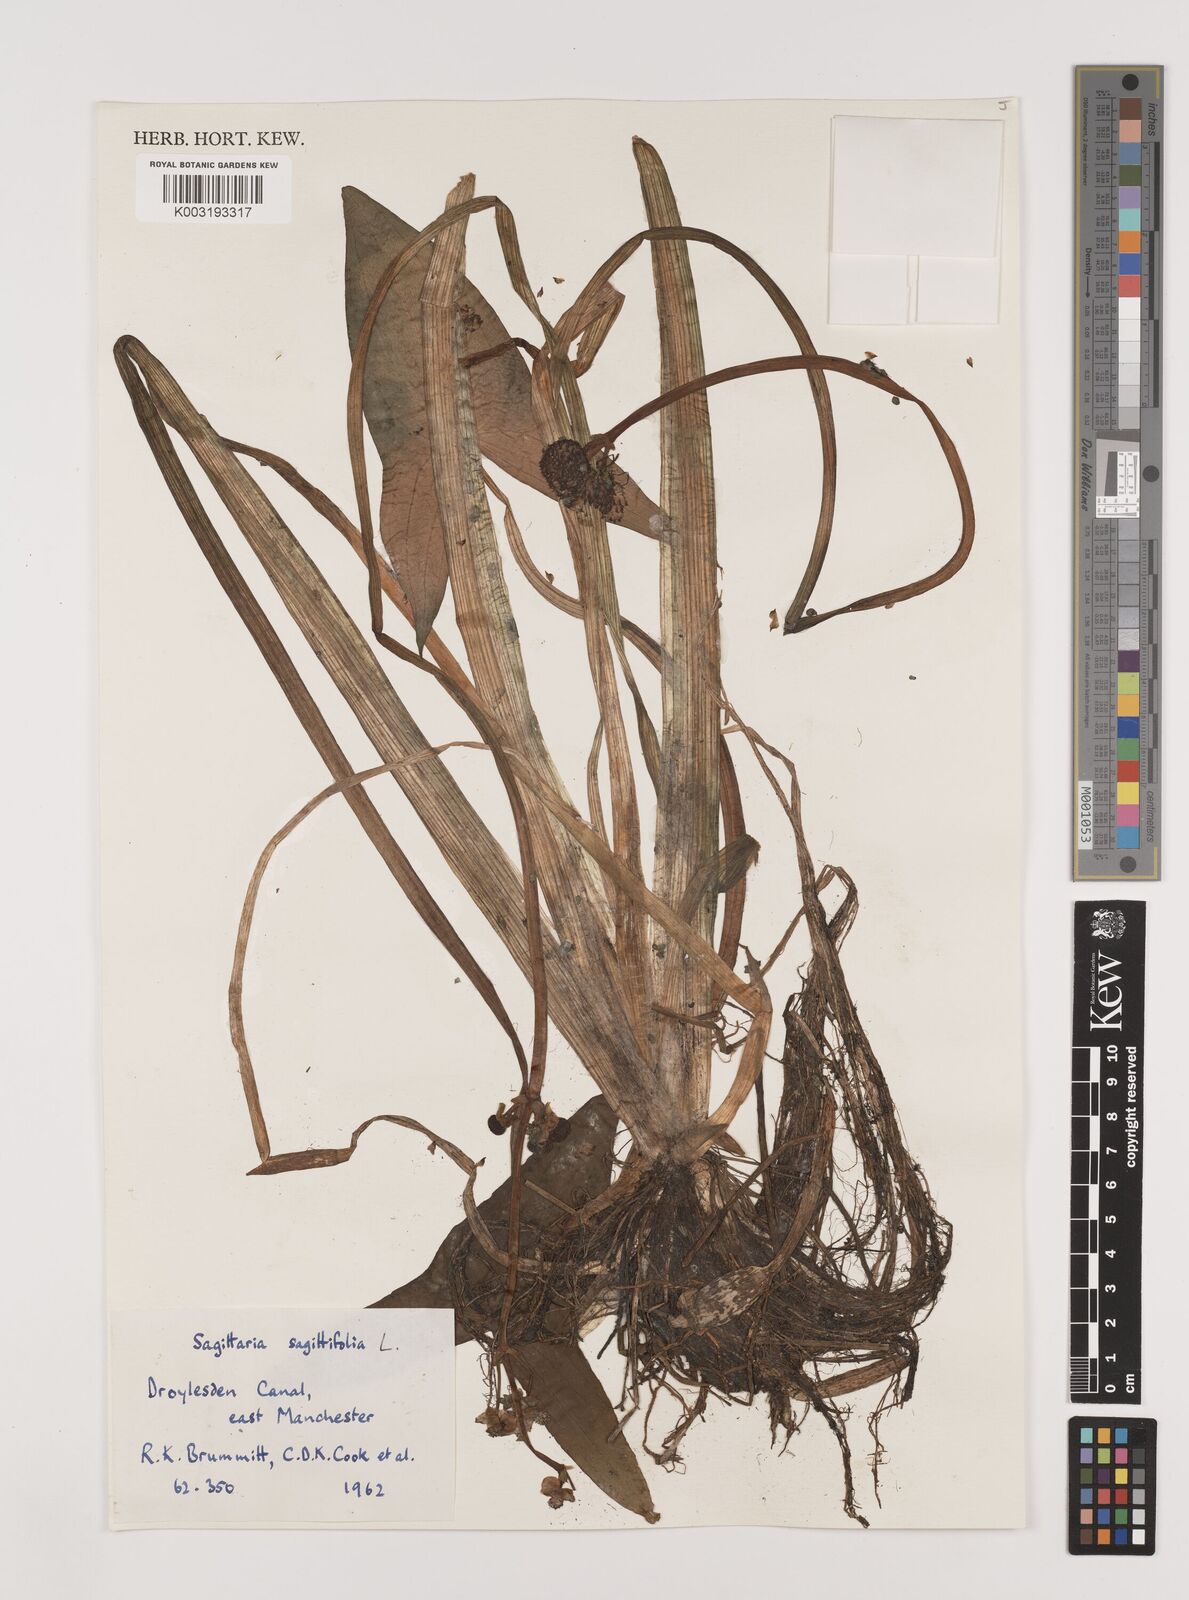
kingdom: Plantae
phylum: Tracheophyta
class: Liliopsida
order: Alismatales
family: Alismataceae
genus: Sagittaria
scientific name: Sagittaria sagittifolia
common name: Arrowhead
